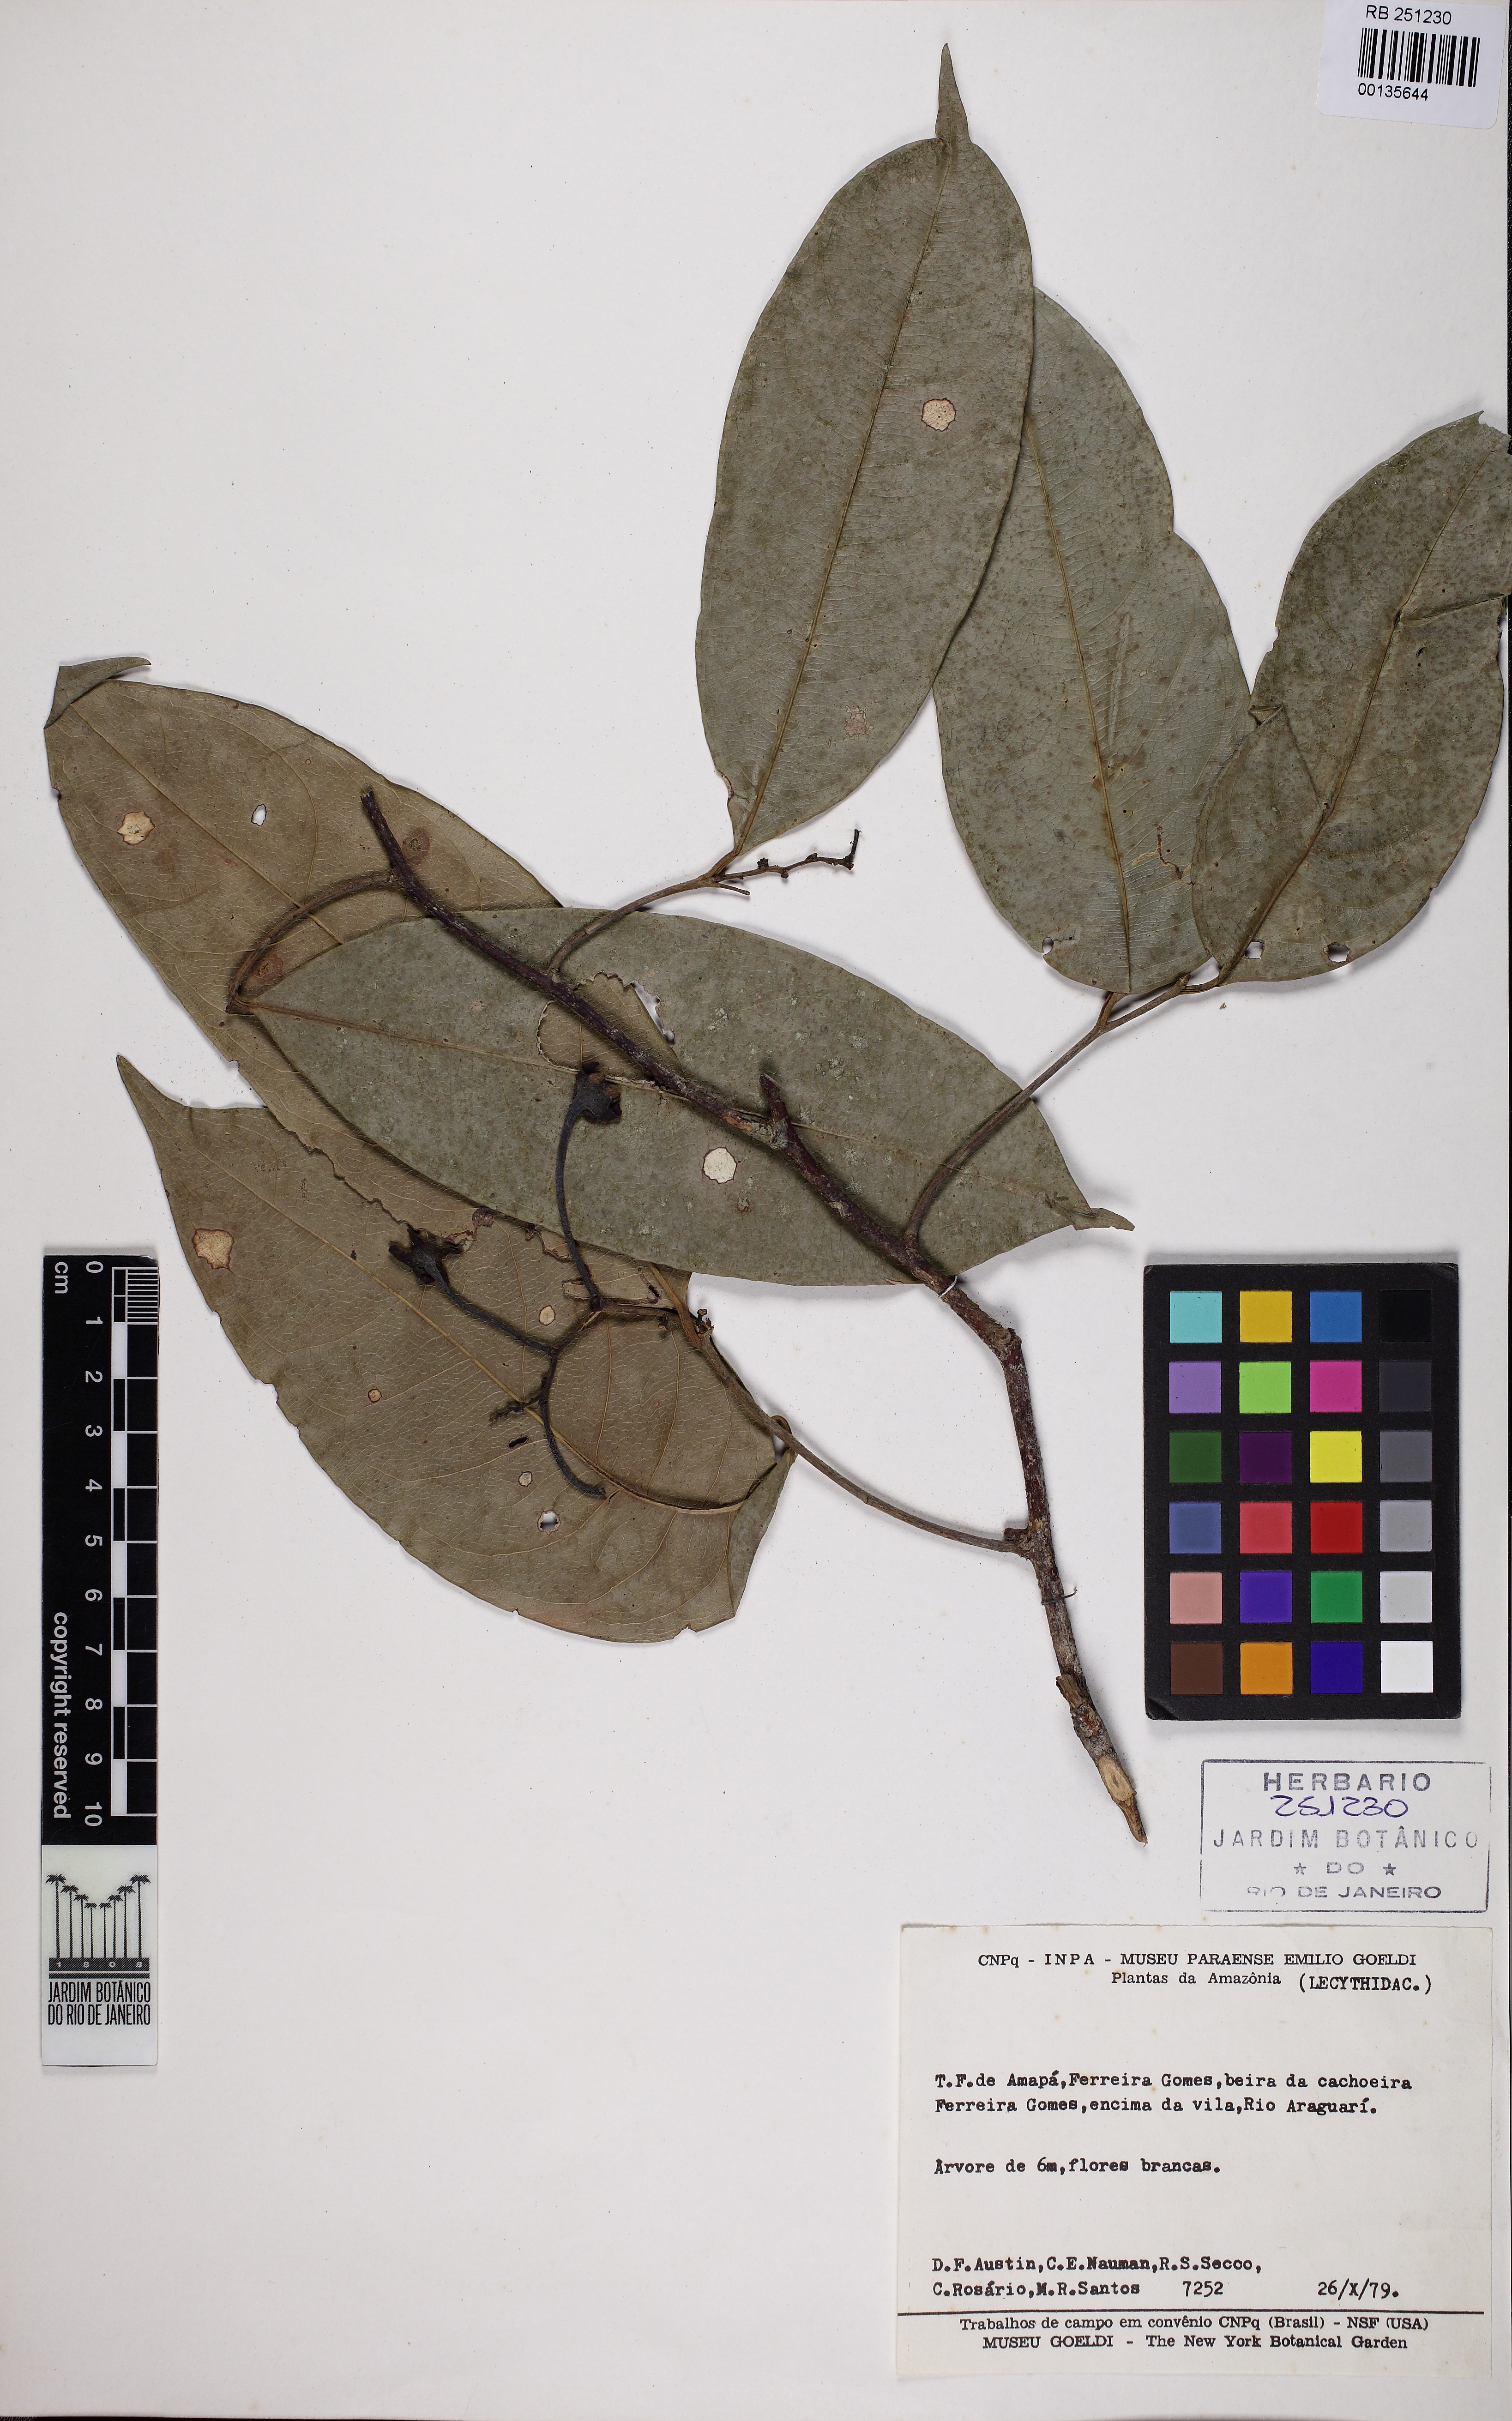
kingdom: Plantae
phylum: Tracheophyta
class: Magnoliopsida
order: Ericales
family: Lecythidaceae
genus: Eschweilera
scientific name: Eschweilera pedicellata
